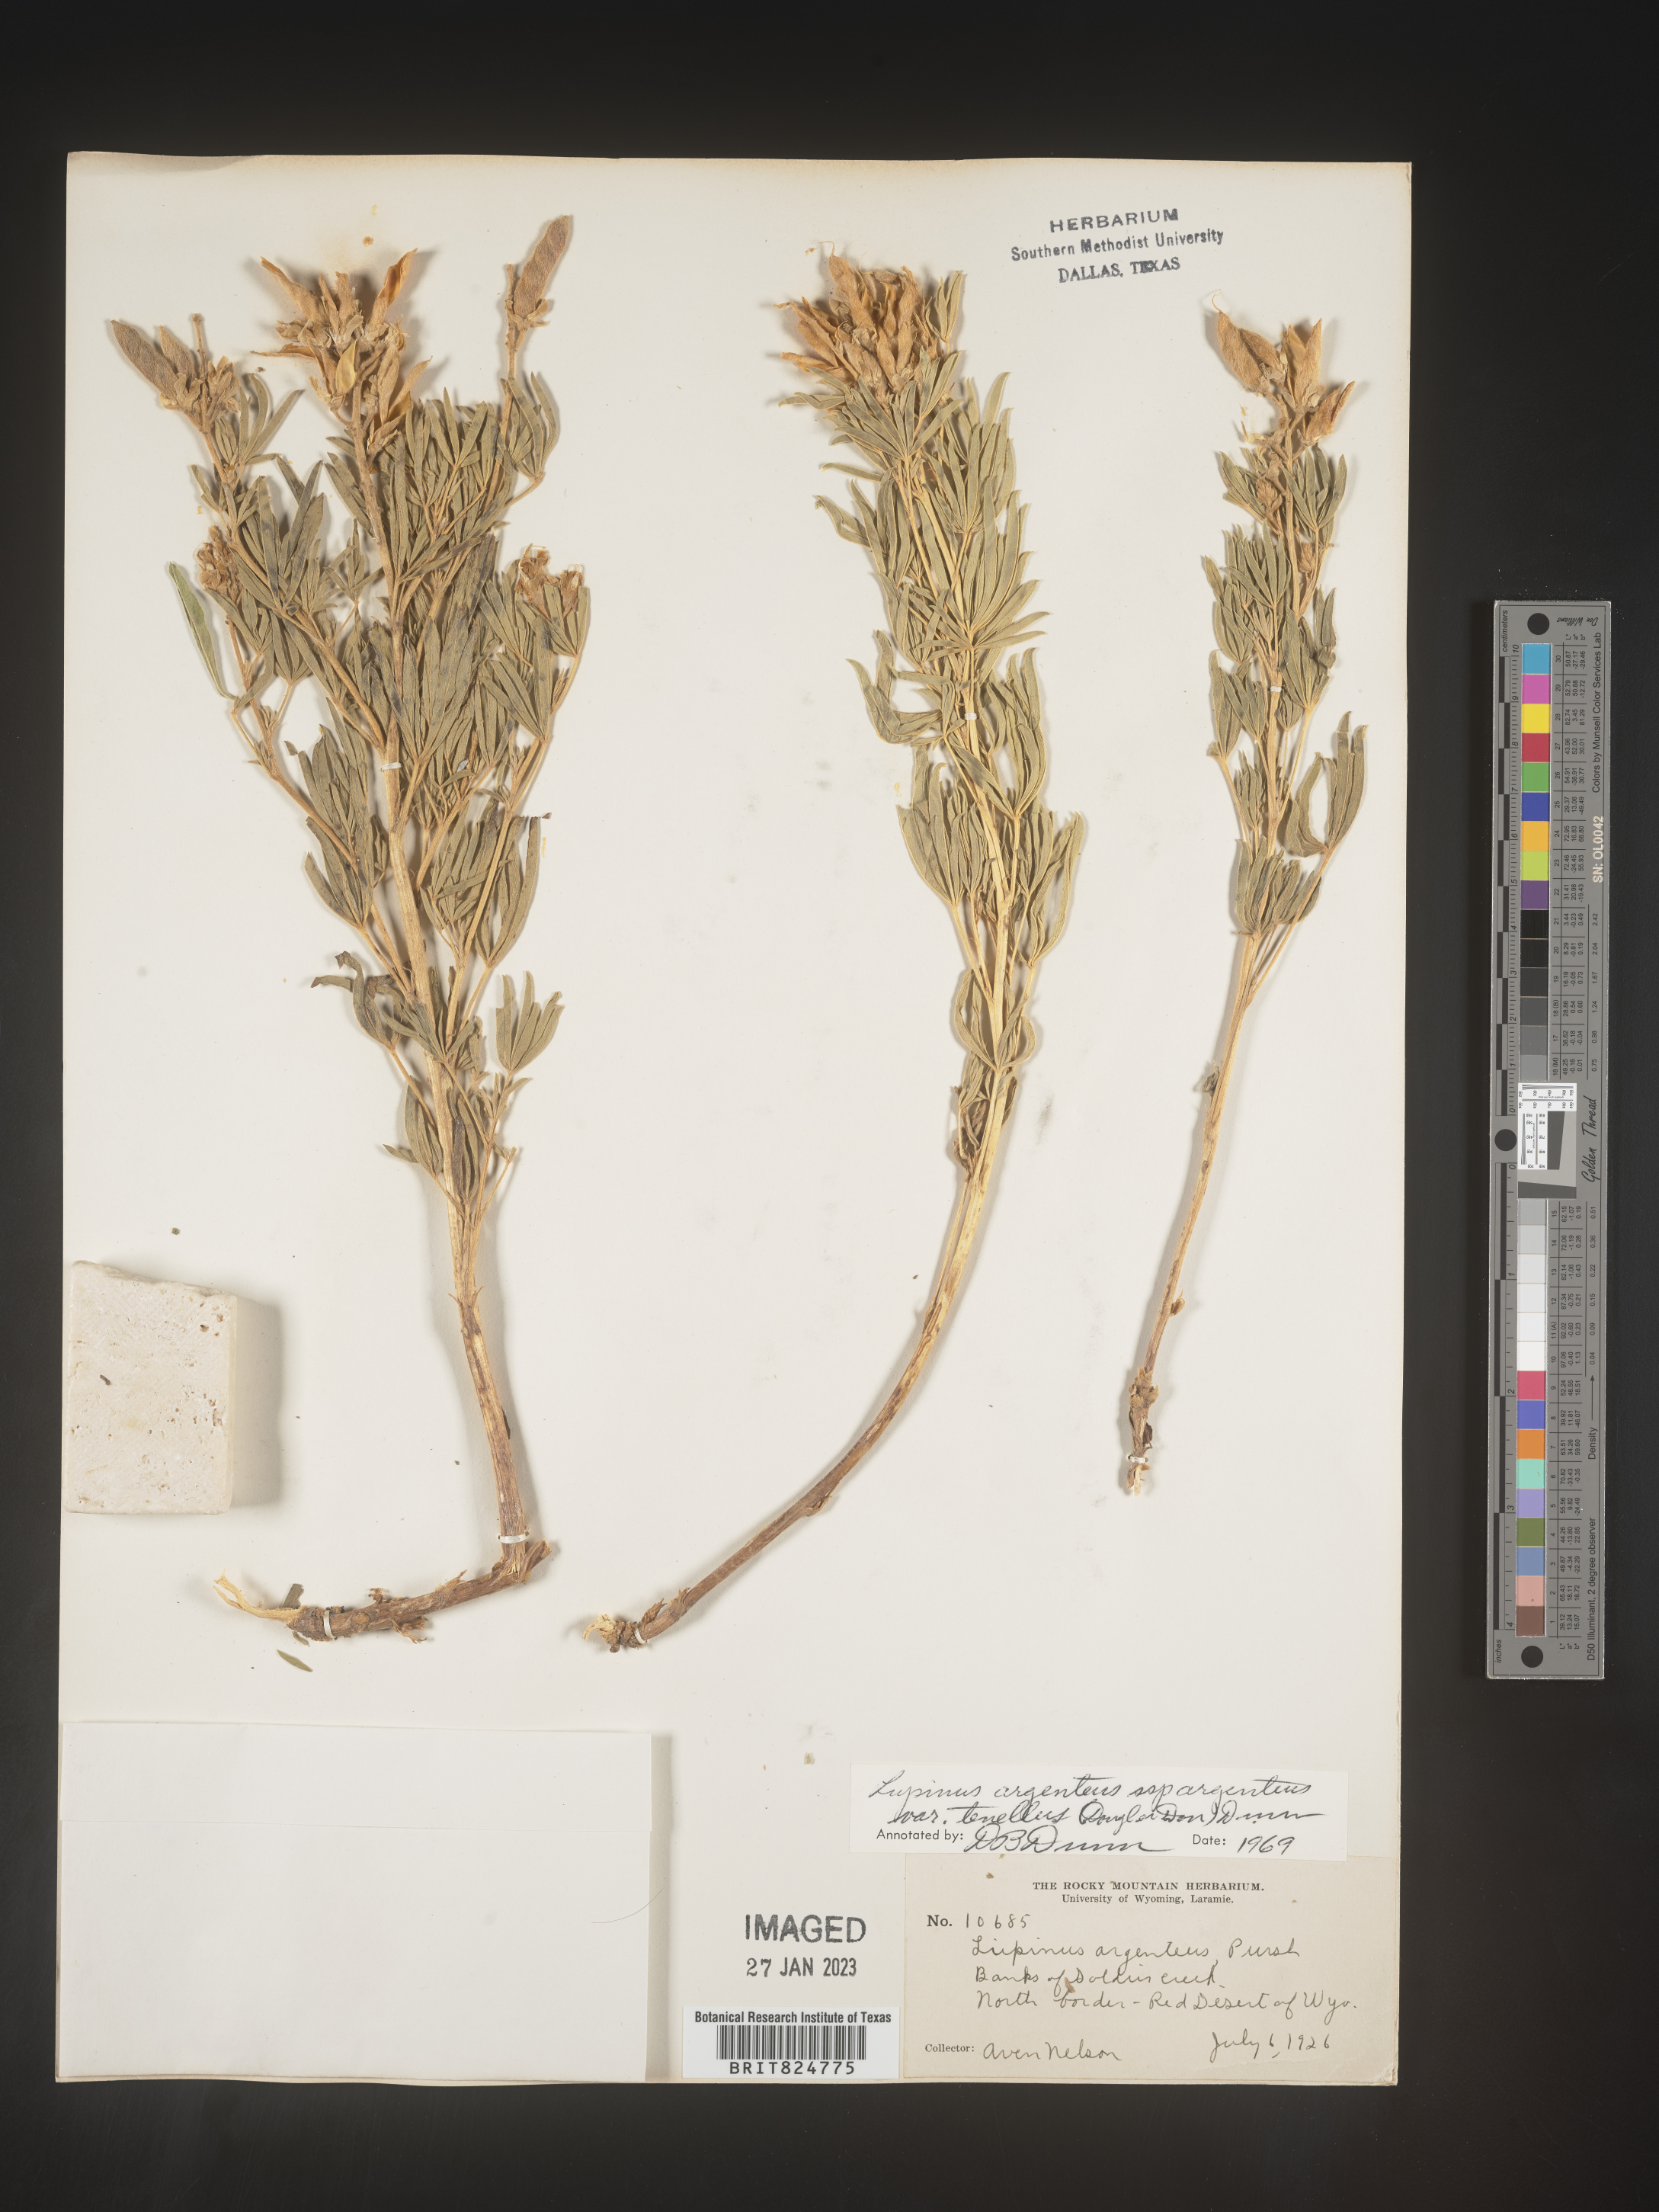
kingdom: Plantae
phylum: Tracheophyta
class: Magnoliopsida
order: Fabales
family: Fabaceae
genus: Lupinus
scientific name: Lupinus argenteus
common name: Silvery lupine
